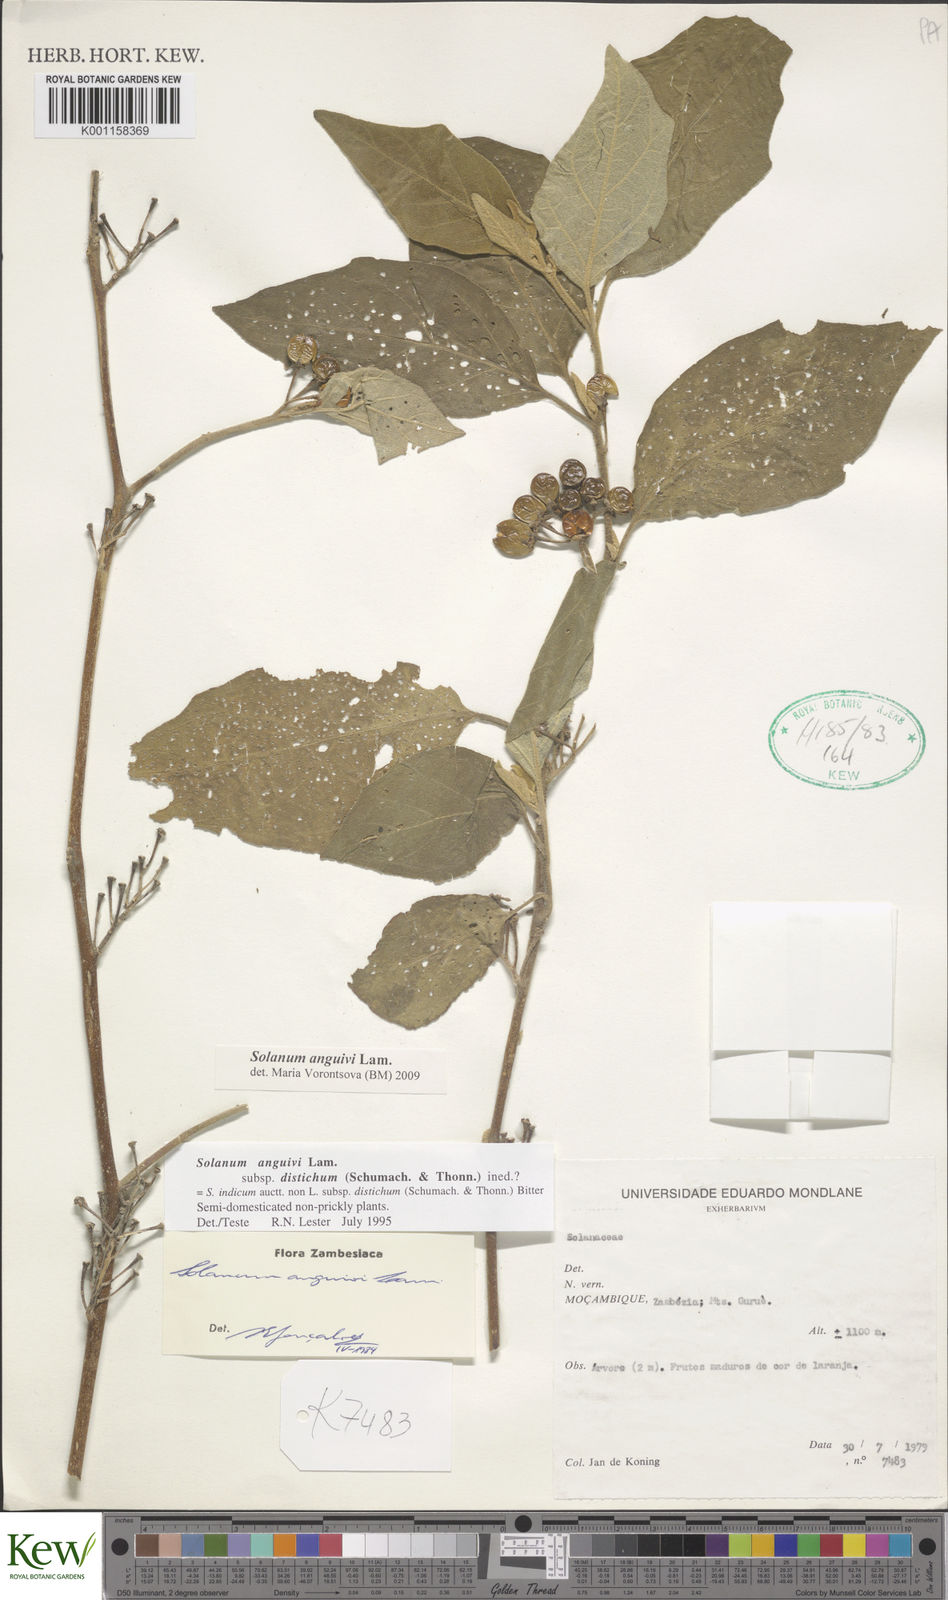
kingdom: Plantae
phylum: Tracheophyta
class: Magnoliopsida
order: Solanales
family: Solanaceae
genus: Solanum
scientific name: Solanum anguivi
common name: Forest bitterberry
